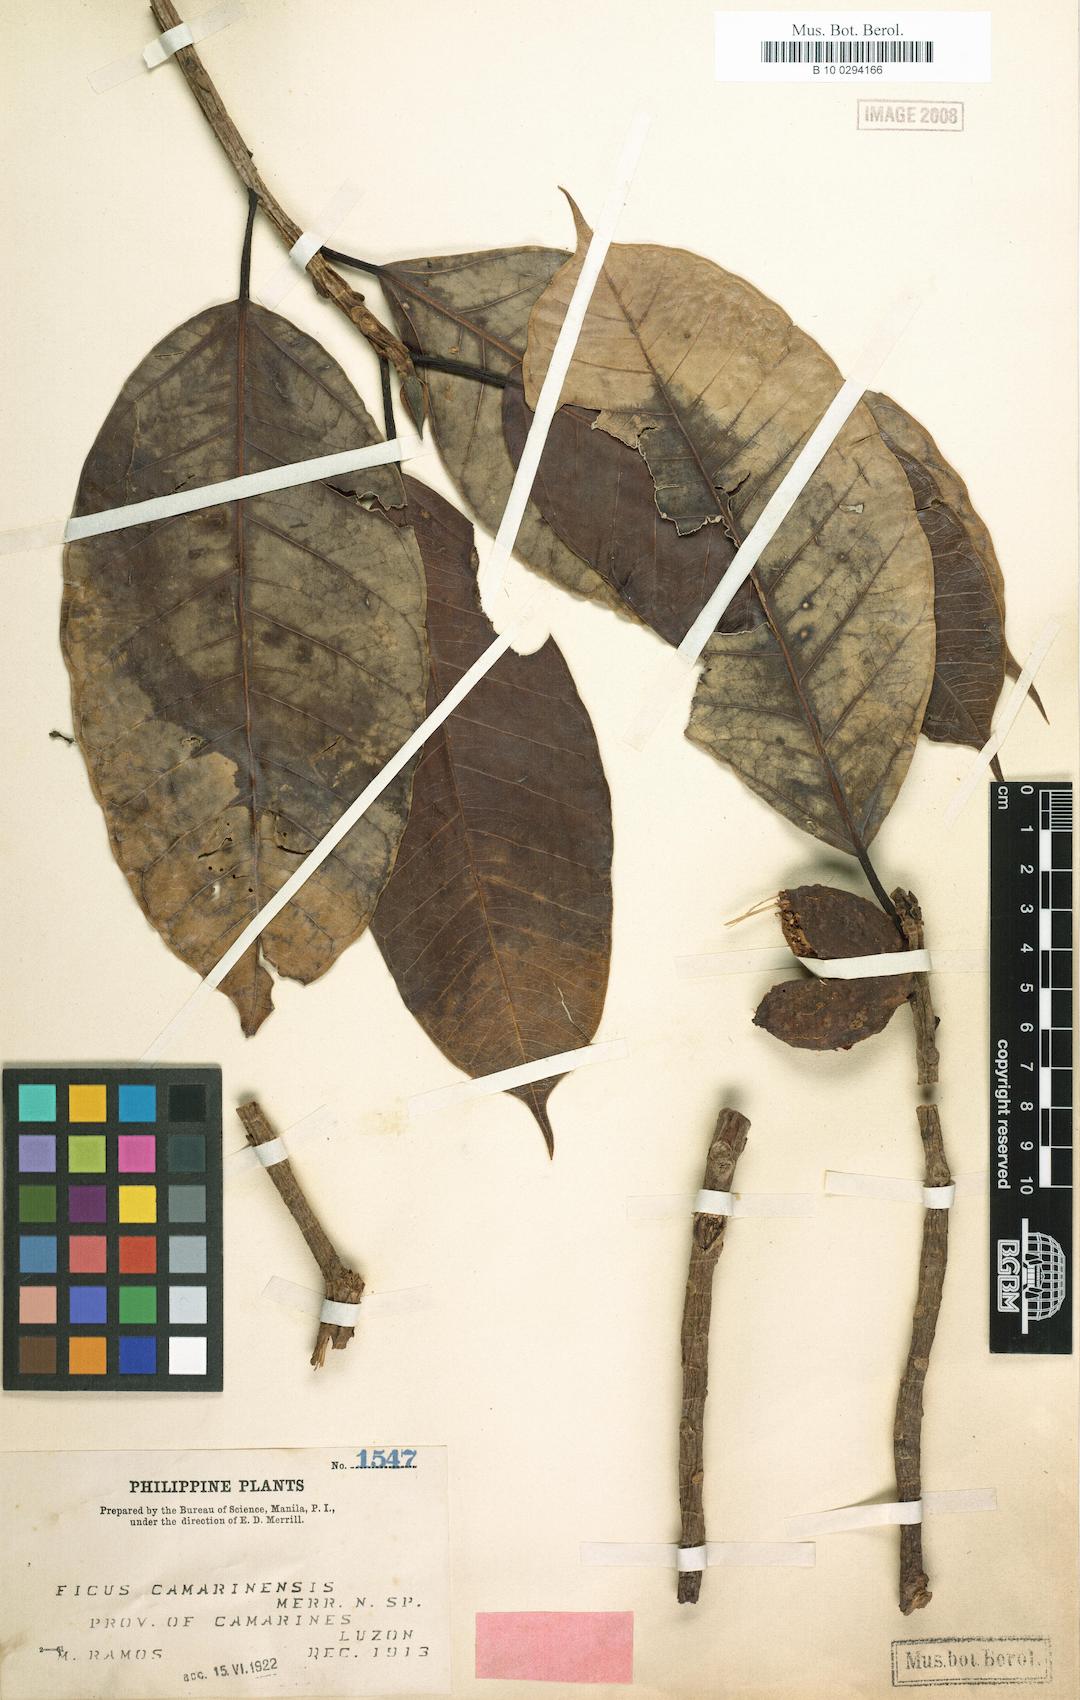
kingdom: Plantae
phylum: Tracheophyta
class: Magnoliopsida
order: Rosales
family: Moraceae
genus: Ficus
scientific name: Ficus cordatula
